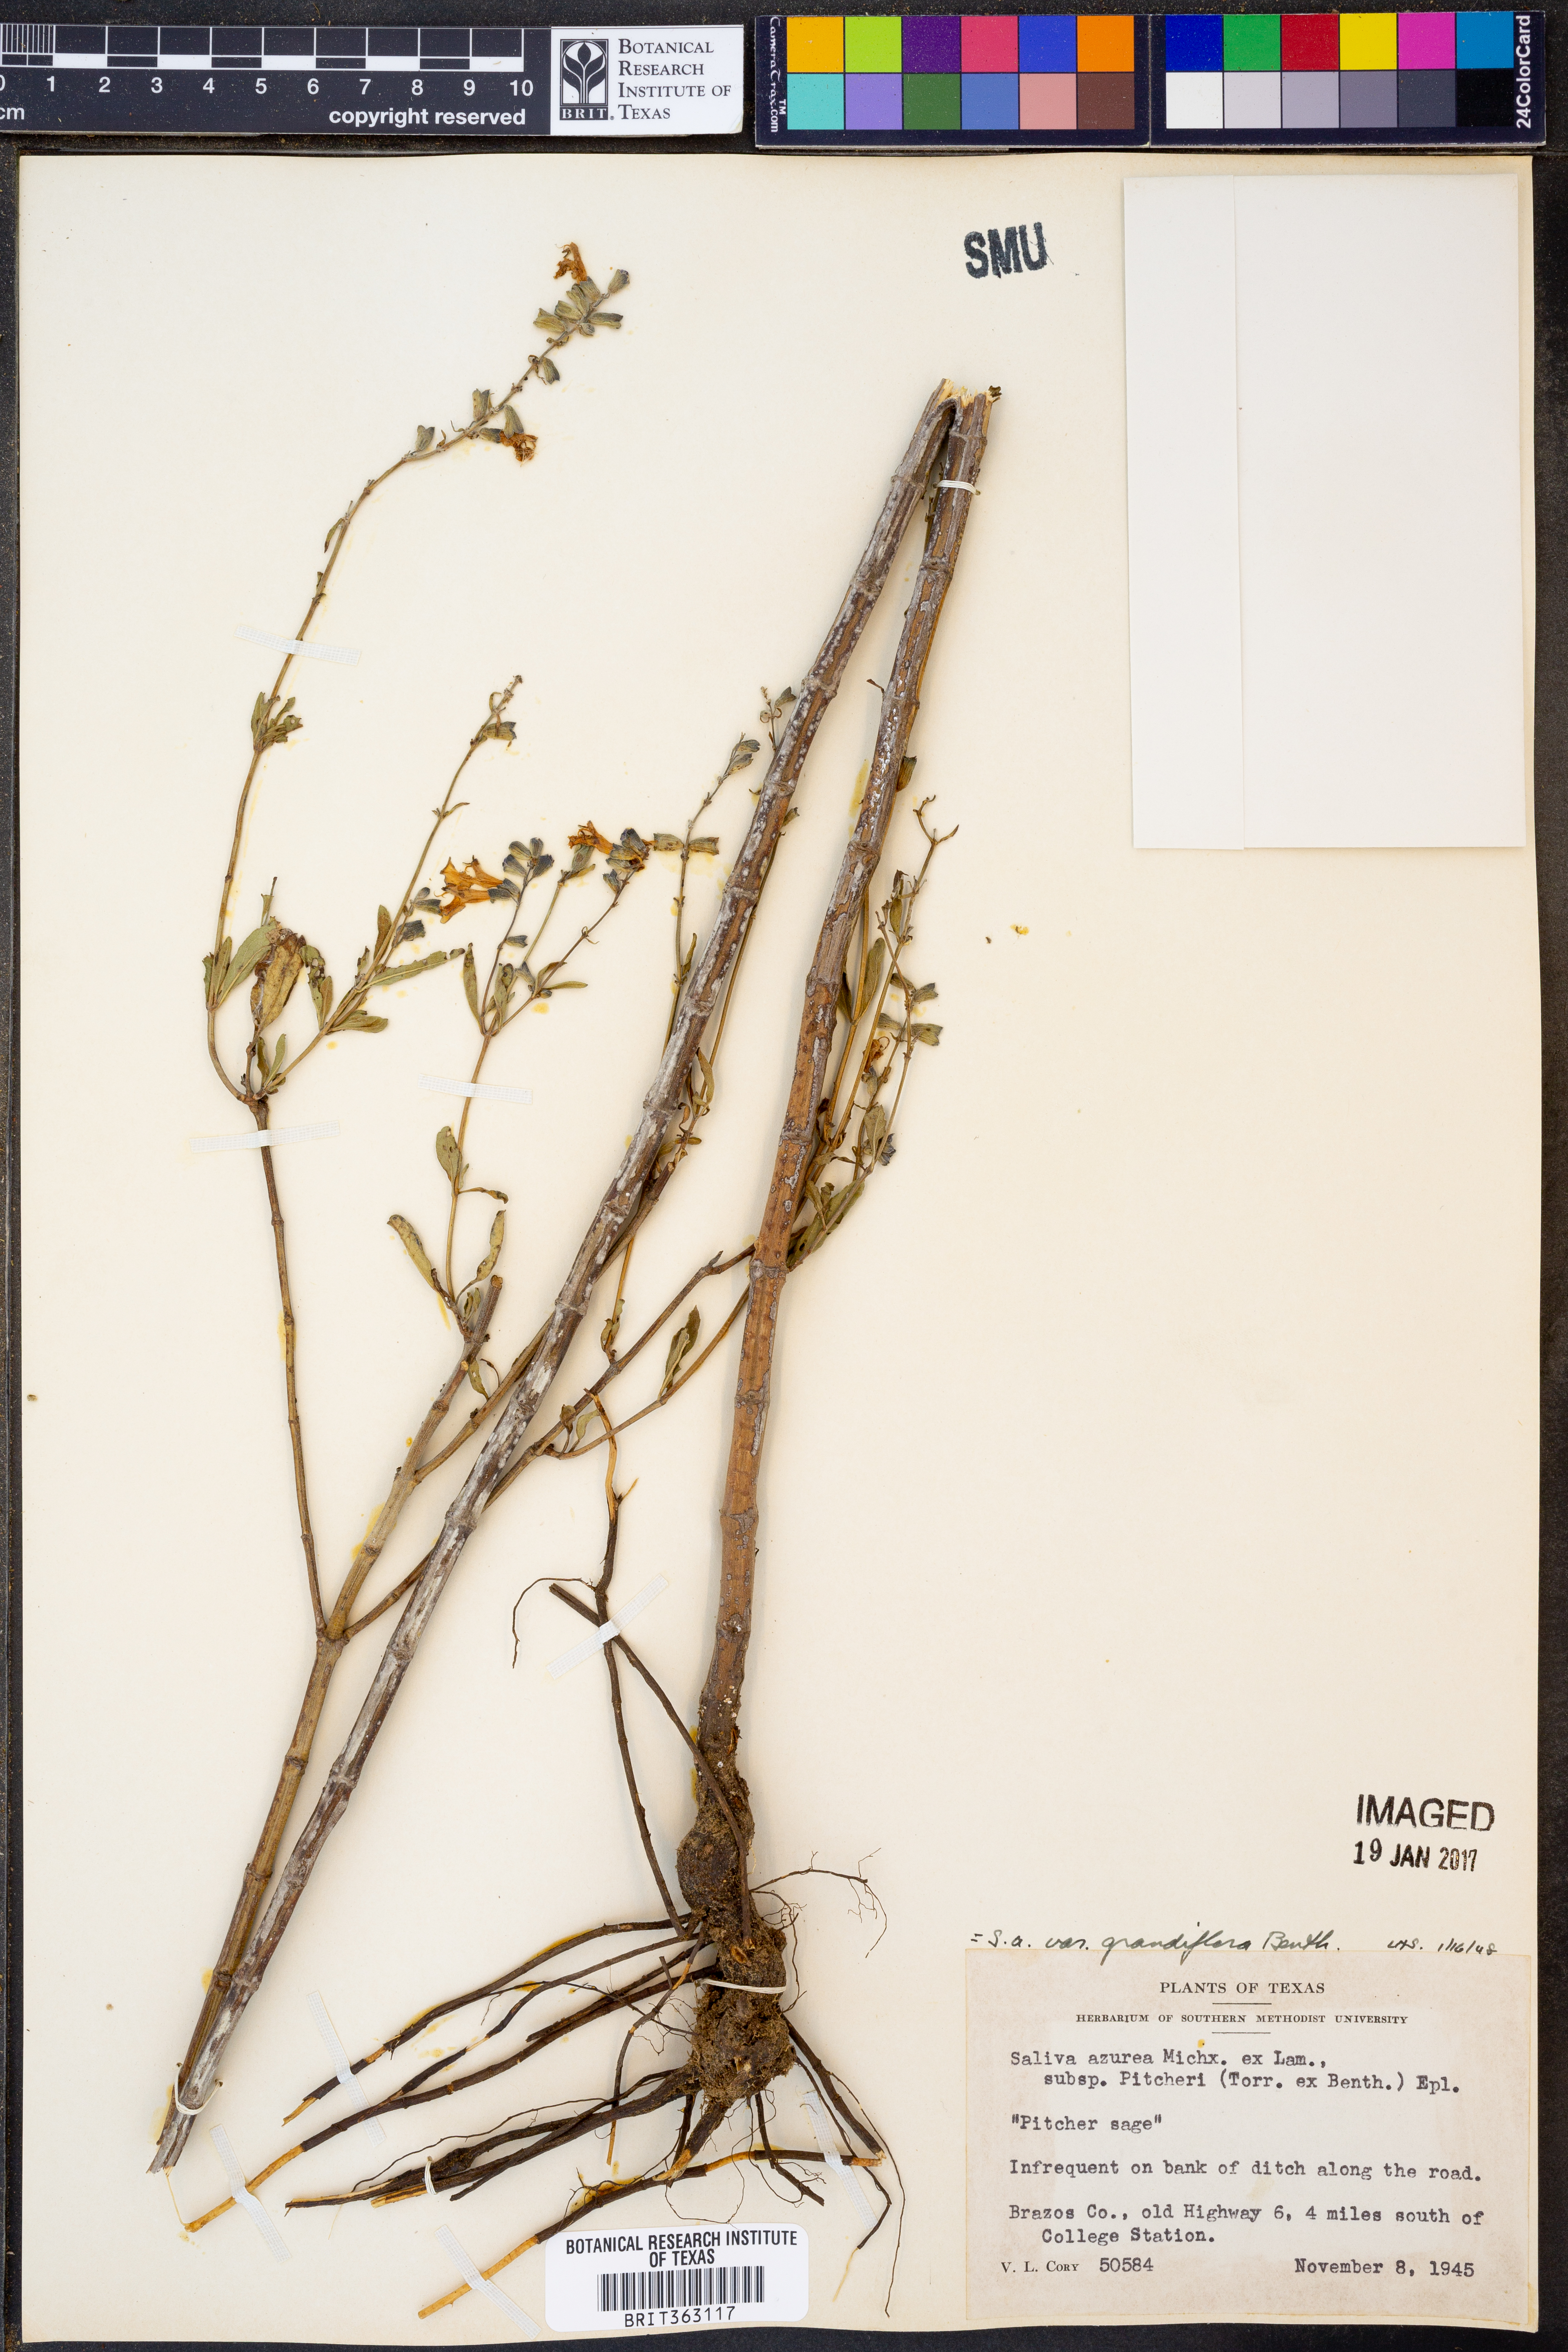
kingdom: Plantae
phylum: Tracheophyta
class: Magnoliopsida
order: Lamiales
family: Lamiaceae
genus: Salvia
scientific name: Salvia azurea
